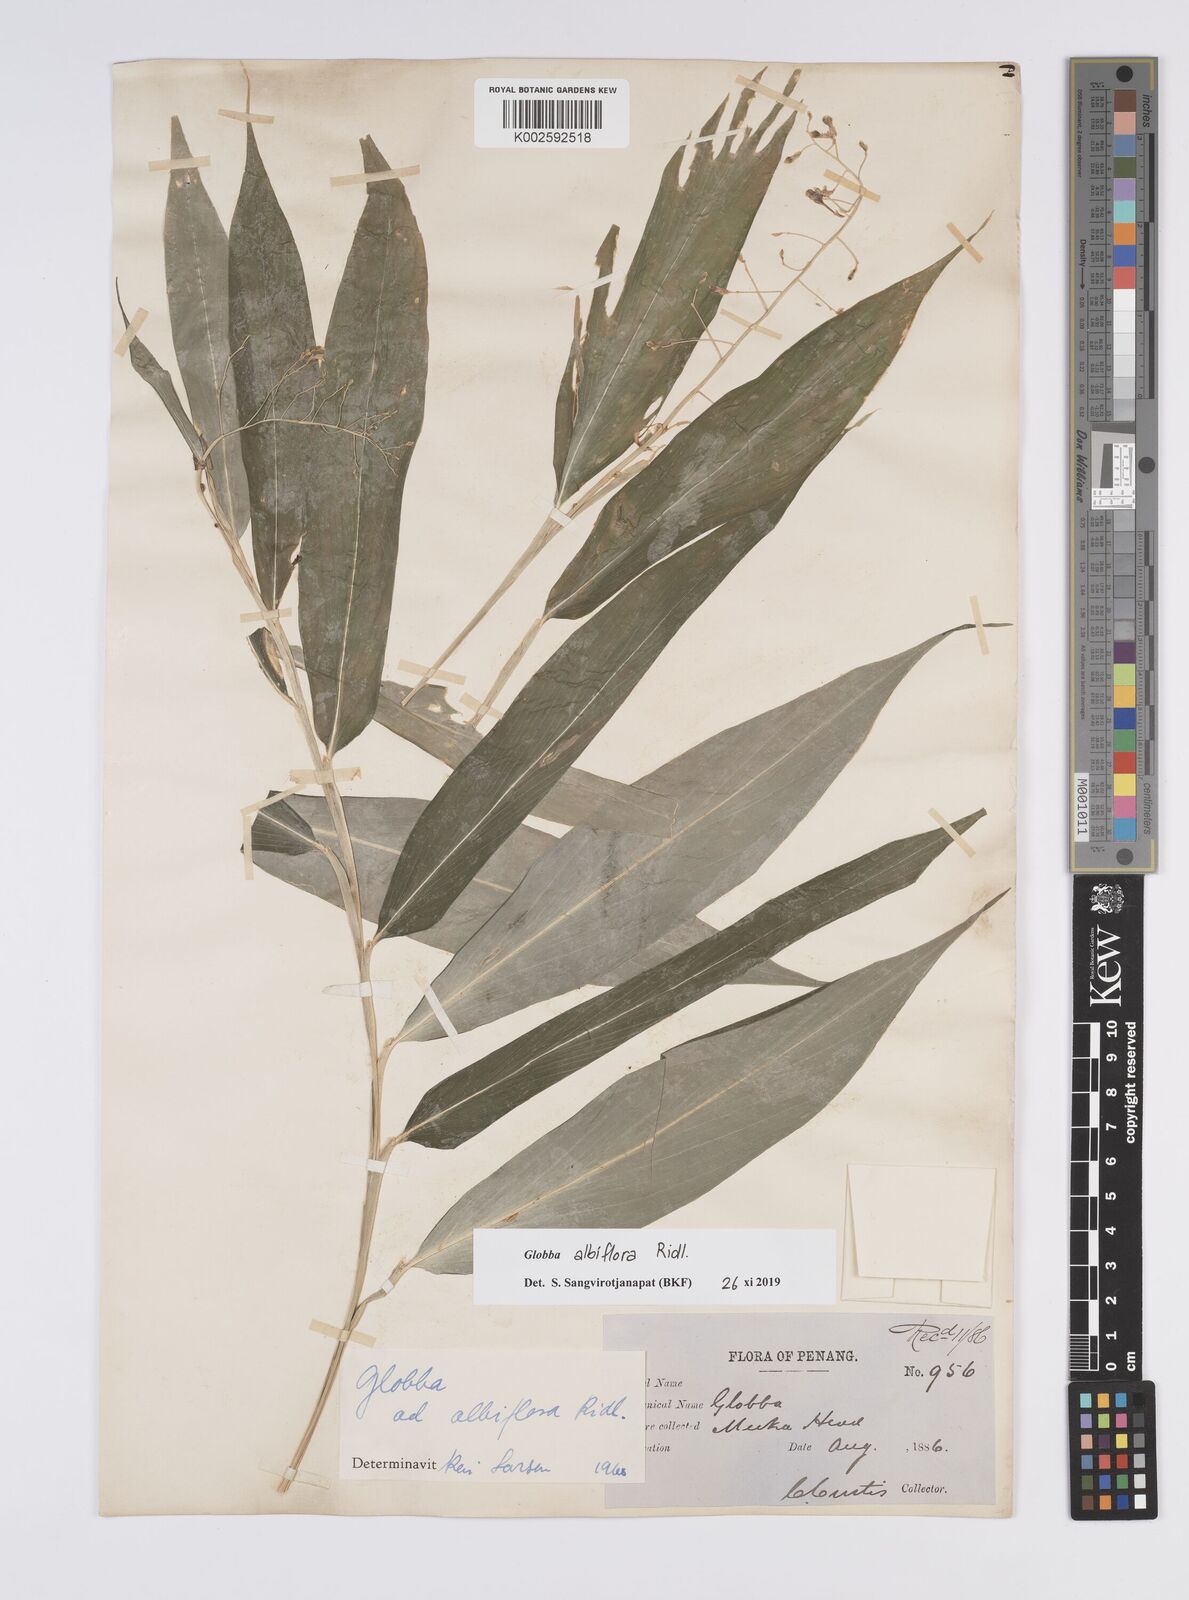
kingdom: Plantae
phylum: Tracheophyta
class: Liliopsida
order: Zingiberales
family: Zingiberaceae
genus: Globba
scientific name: Globba albiflora
